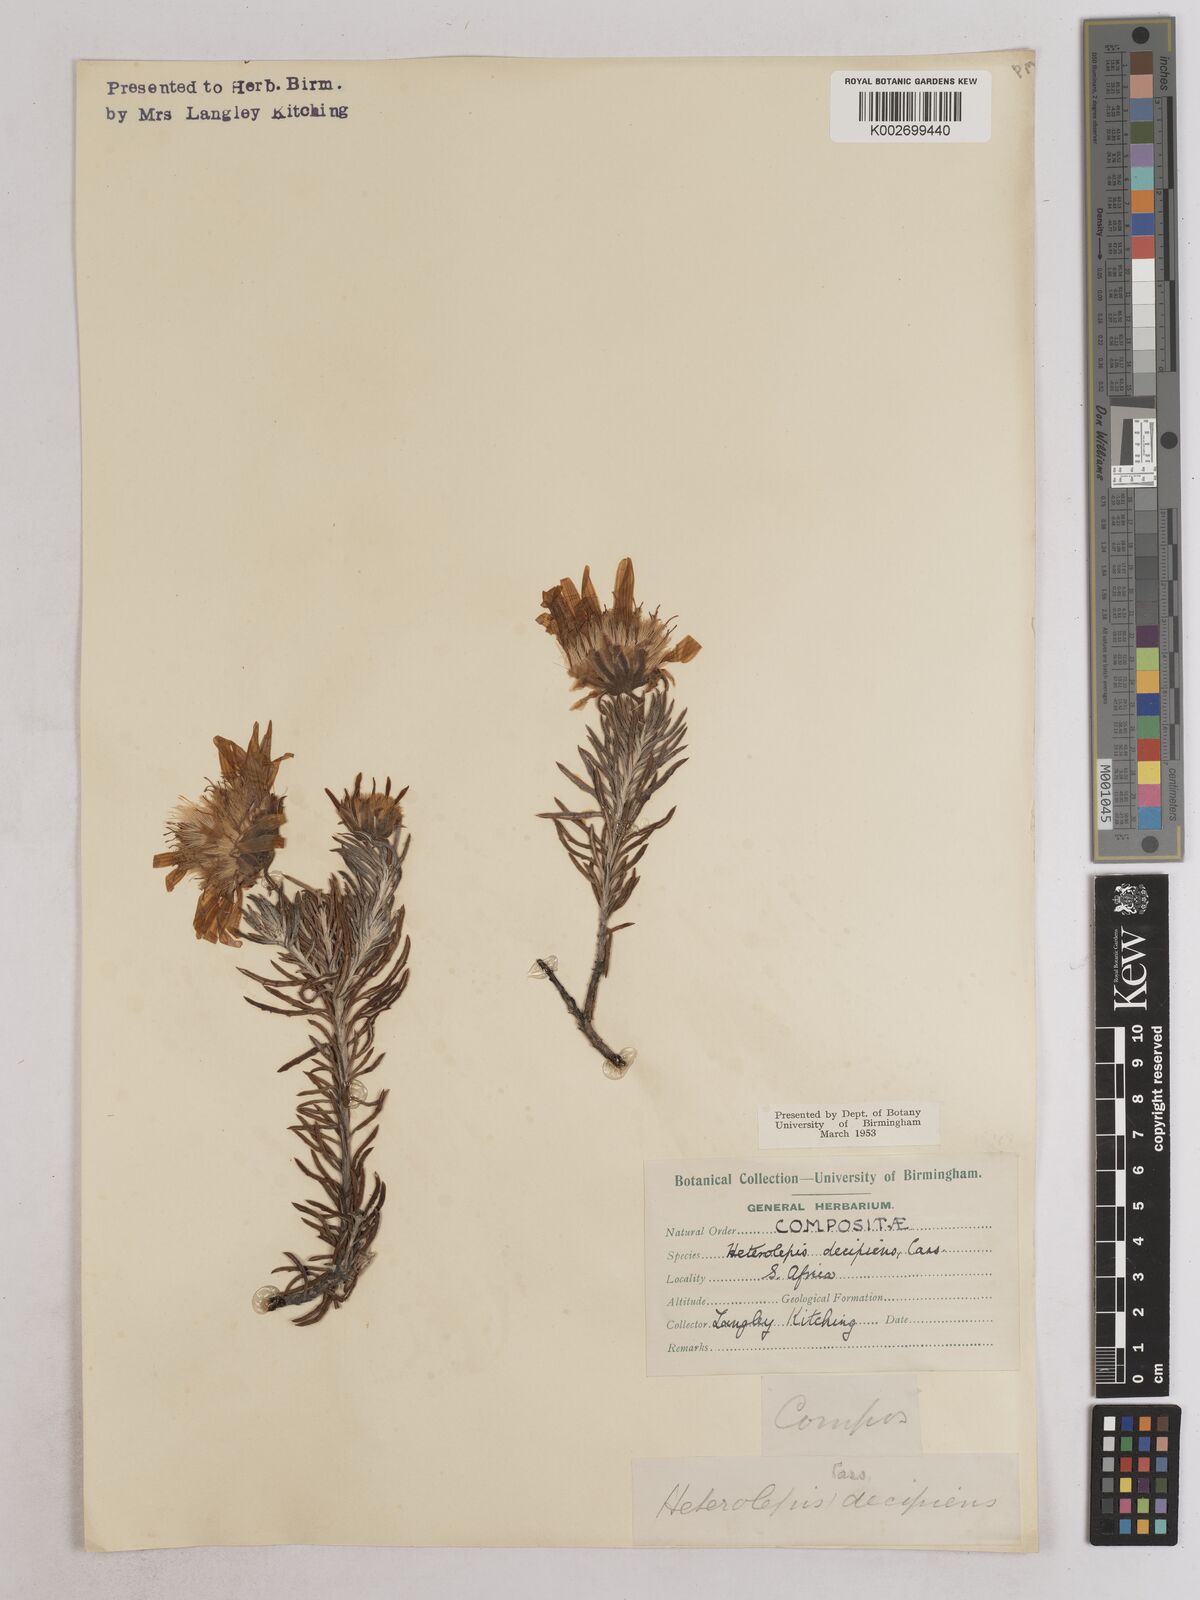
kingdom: Plantae
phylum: Tracheophyta
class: Magnoliopsida
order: Asterales
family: Asteraceae
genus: Heterolepis
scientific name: Heterolepis aliena
